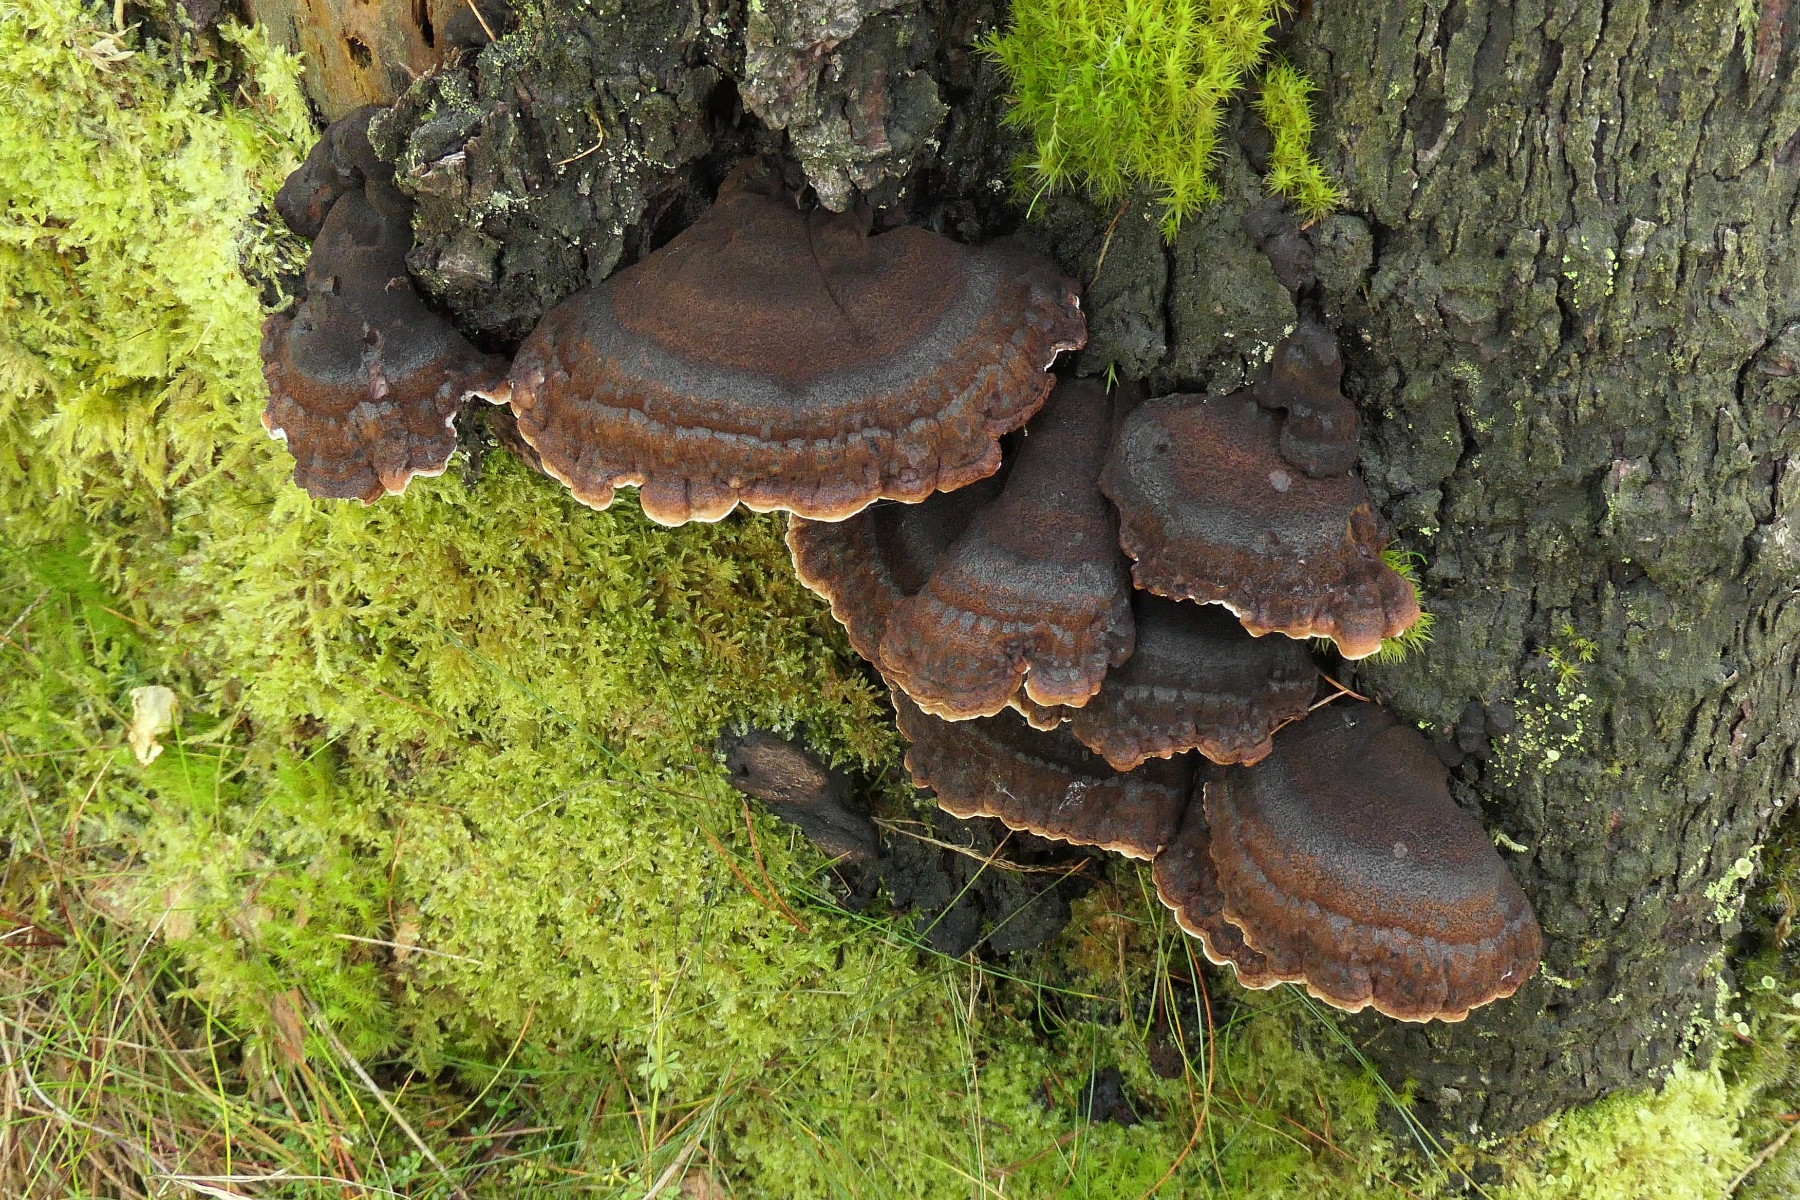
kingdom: Fungi
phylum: Basidiomycota
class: Agaricomycetes
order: Polyporales
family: Ischnodermataceae
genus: Ischnoderma
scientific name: Ischnoderma benzoinum
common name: gran-tjæreporesvamp
